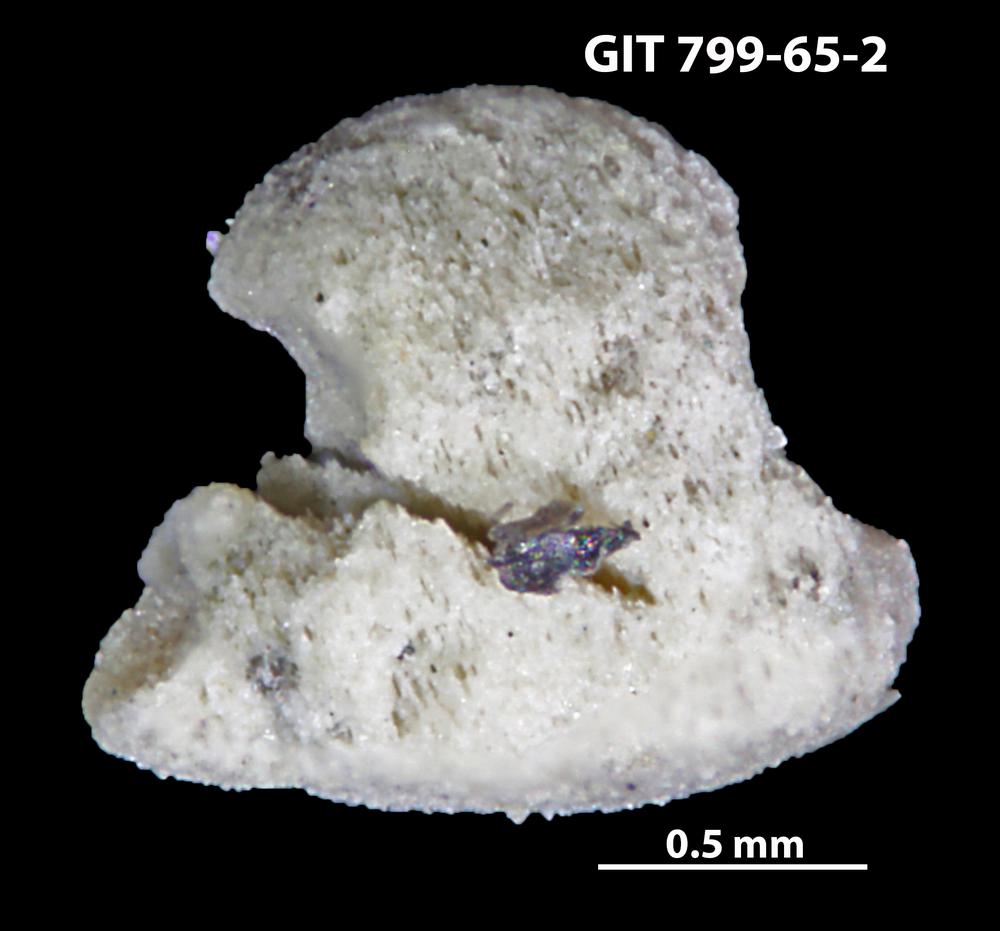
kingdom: Animalia
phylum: Echinodermata
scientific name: Echinodermata
